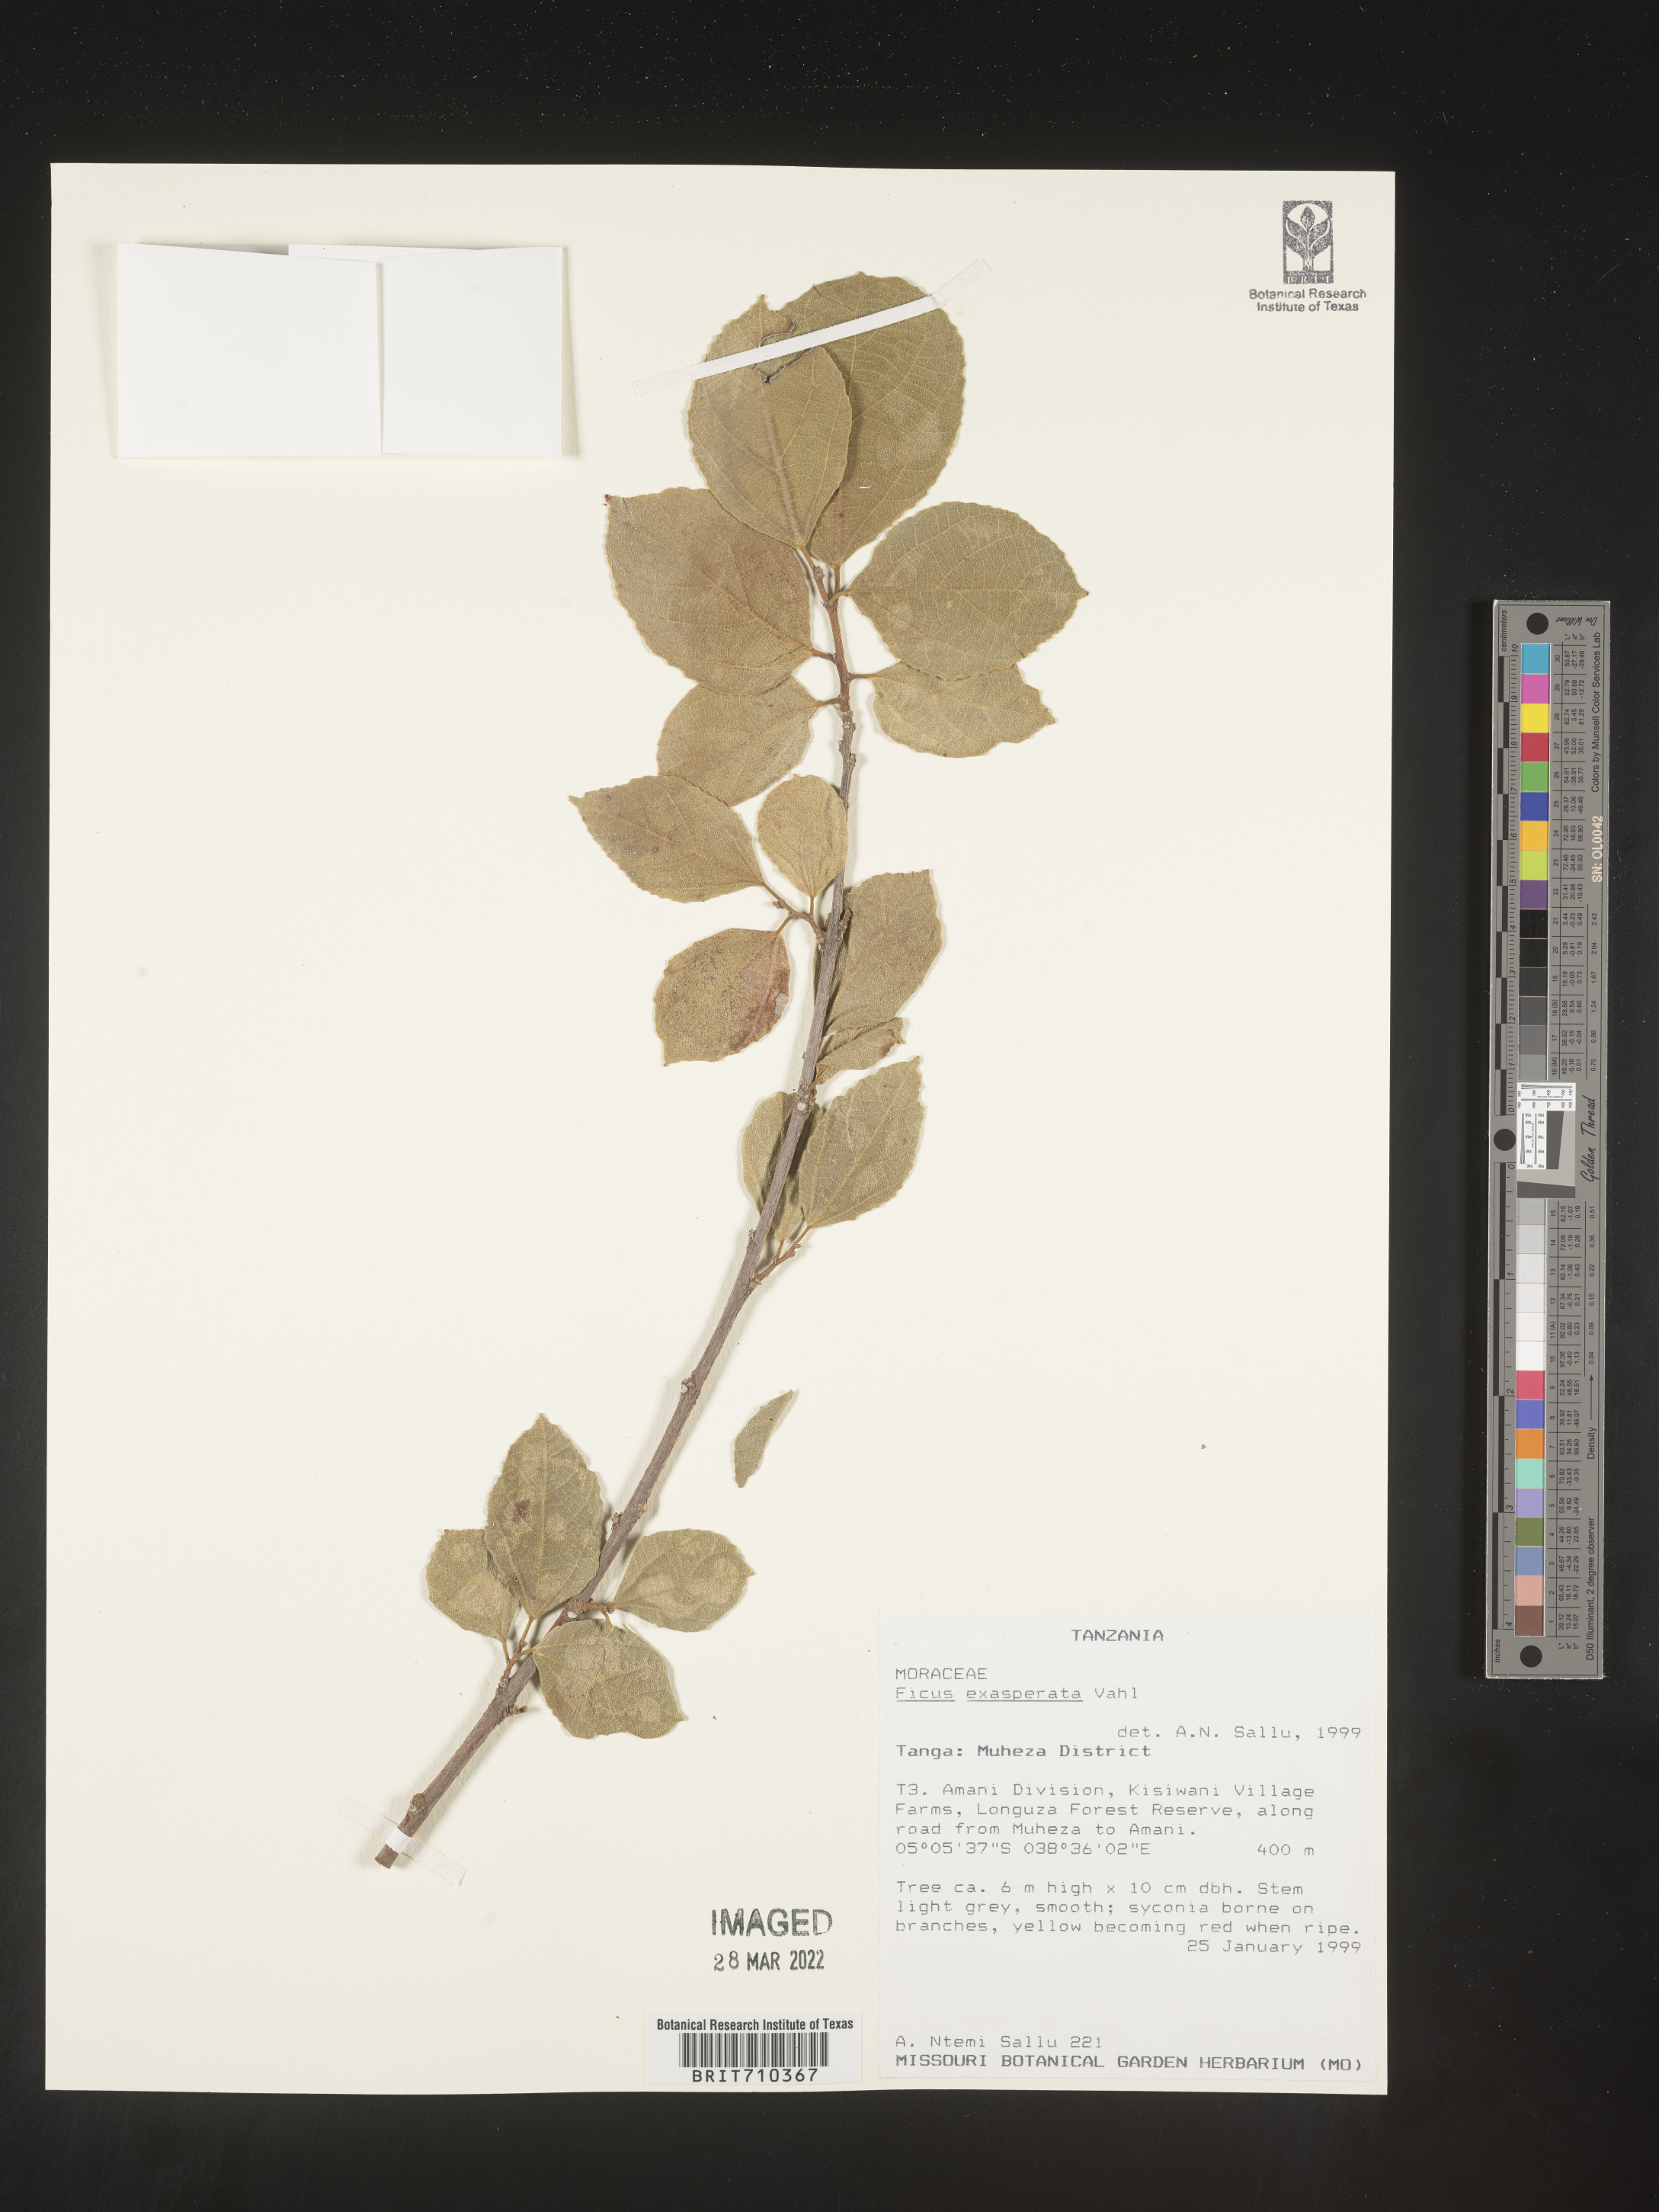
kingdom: Plantae
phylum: Tracheophyta
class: Magnoliopsida
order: Rosales
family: Moraceae
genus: Ficus
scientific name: Ficus
